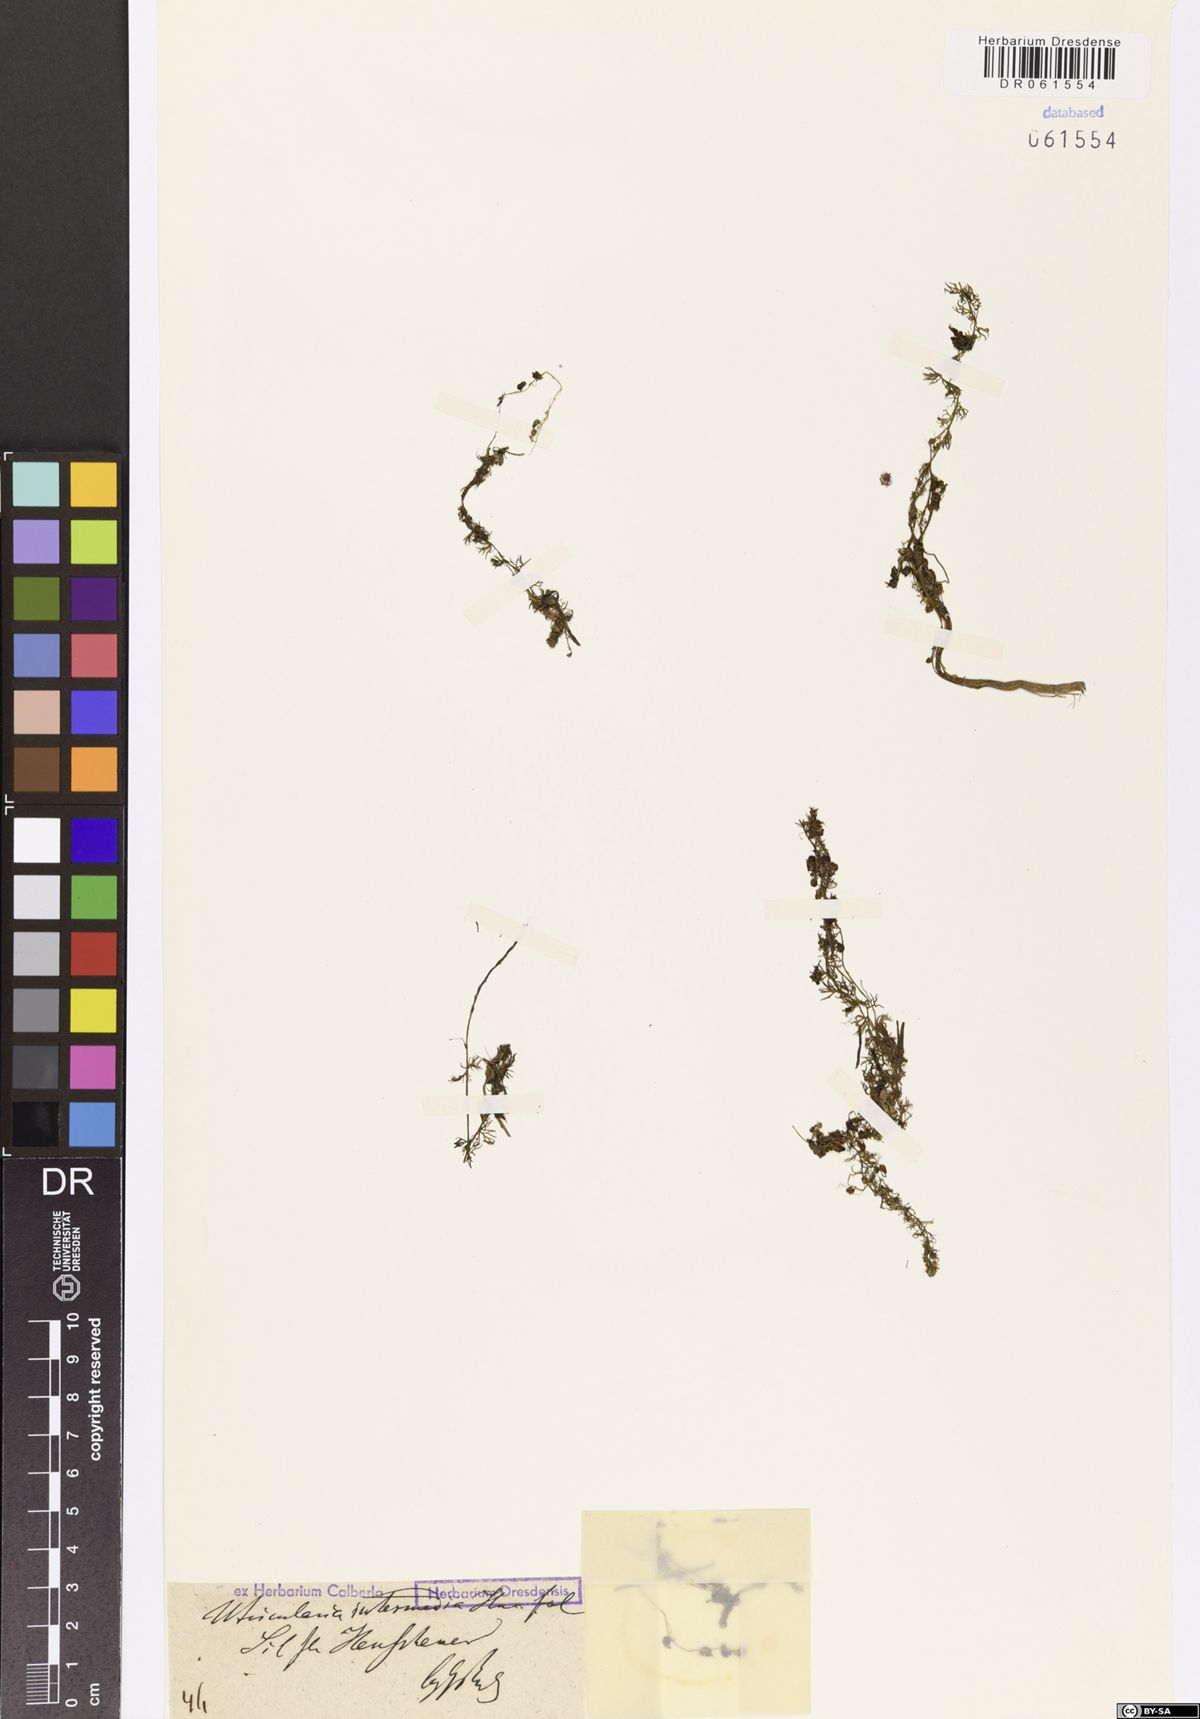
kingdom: Plantae
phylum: Tracheophyta
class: Magnoliopsida
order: Lamiales
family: Lentibulariaceae
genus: Utricularia
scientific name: Utricularia intermedia
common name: Intermediate bladderwort
